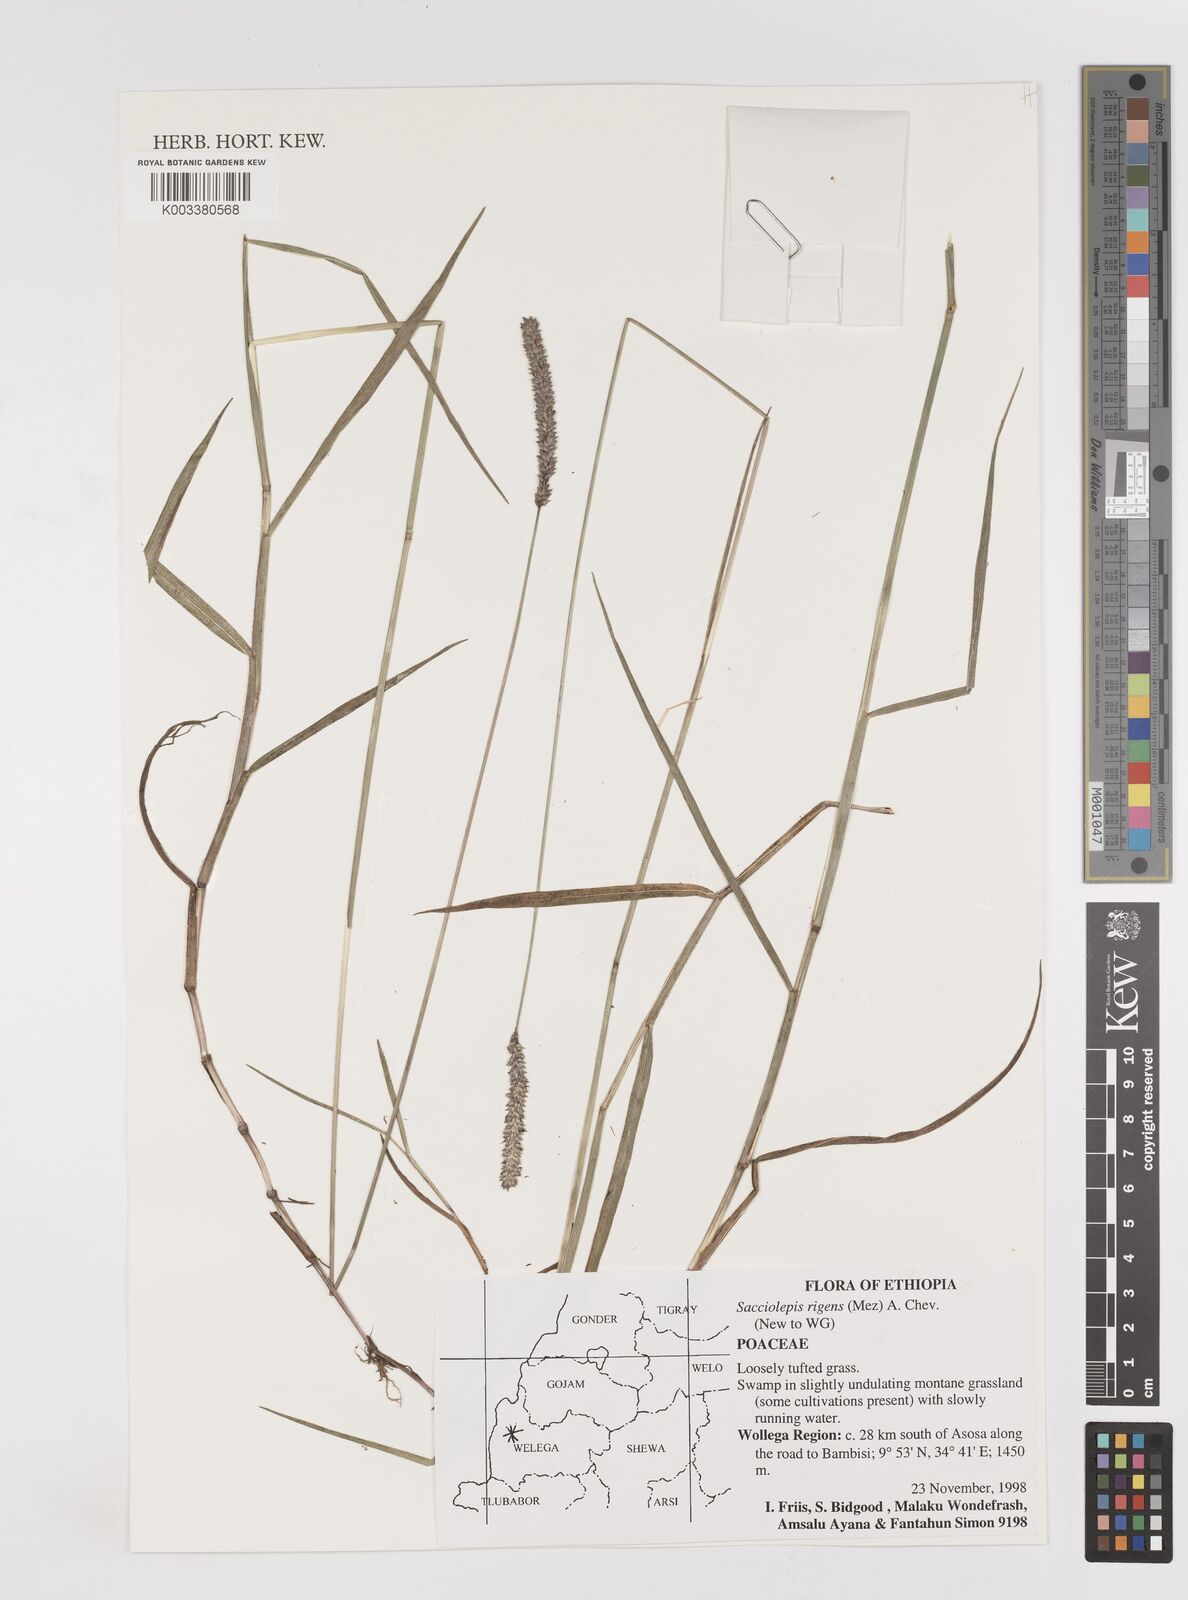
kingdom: Plantae
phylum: Tracheophyta
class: Liliopsida
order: Poales
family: Poaceae
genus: Sacciolepis
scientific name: Sacciolepis leptorrhachis
